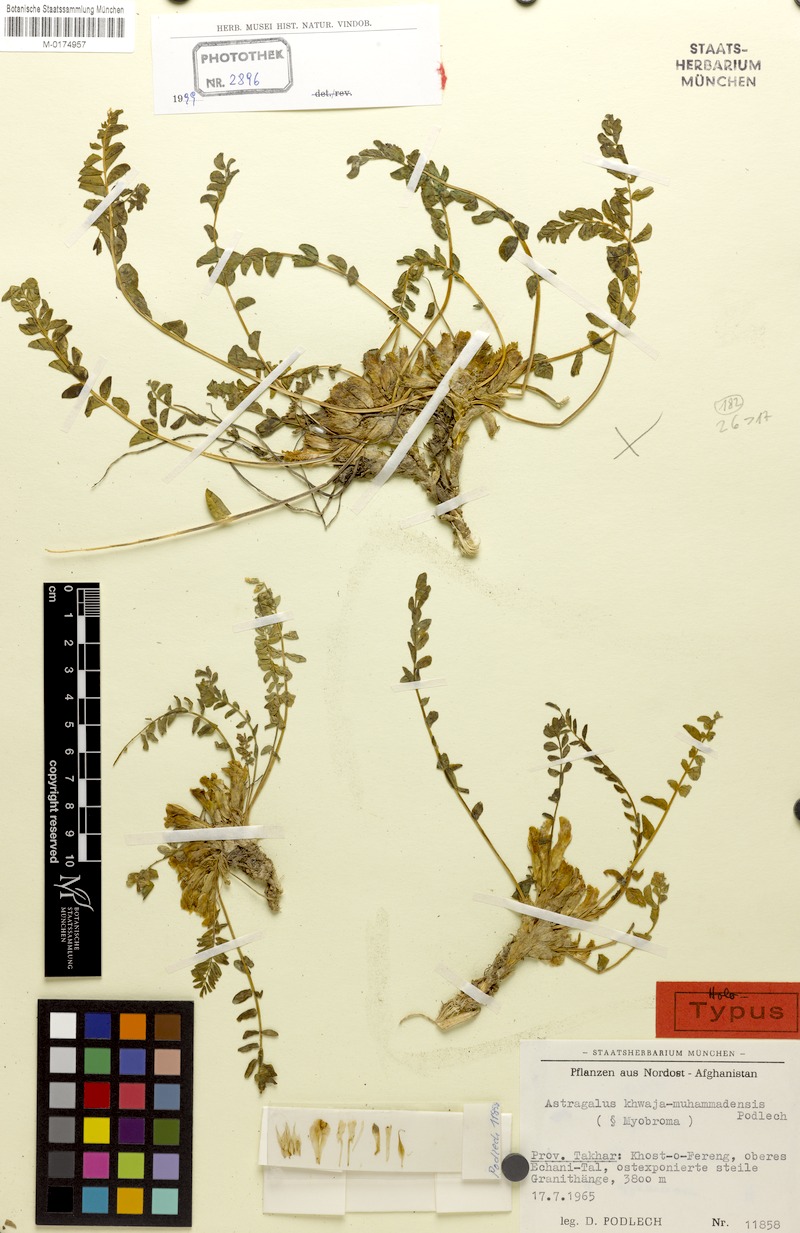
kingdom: Plantae
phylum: Tracheophyta
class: Magnoliopsida
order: Fabales
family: Fabaceae
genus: Astragalus
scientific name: Astragalus khwaja-muhammadensis
